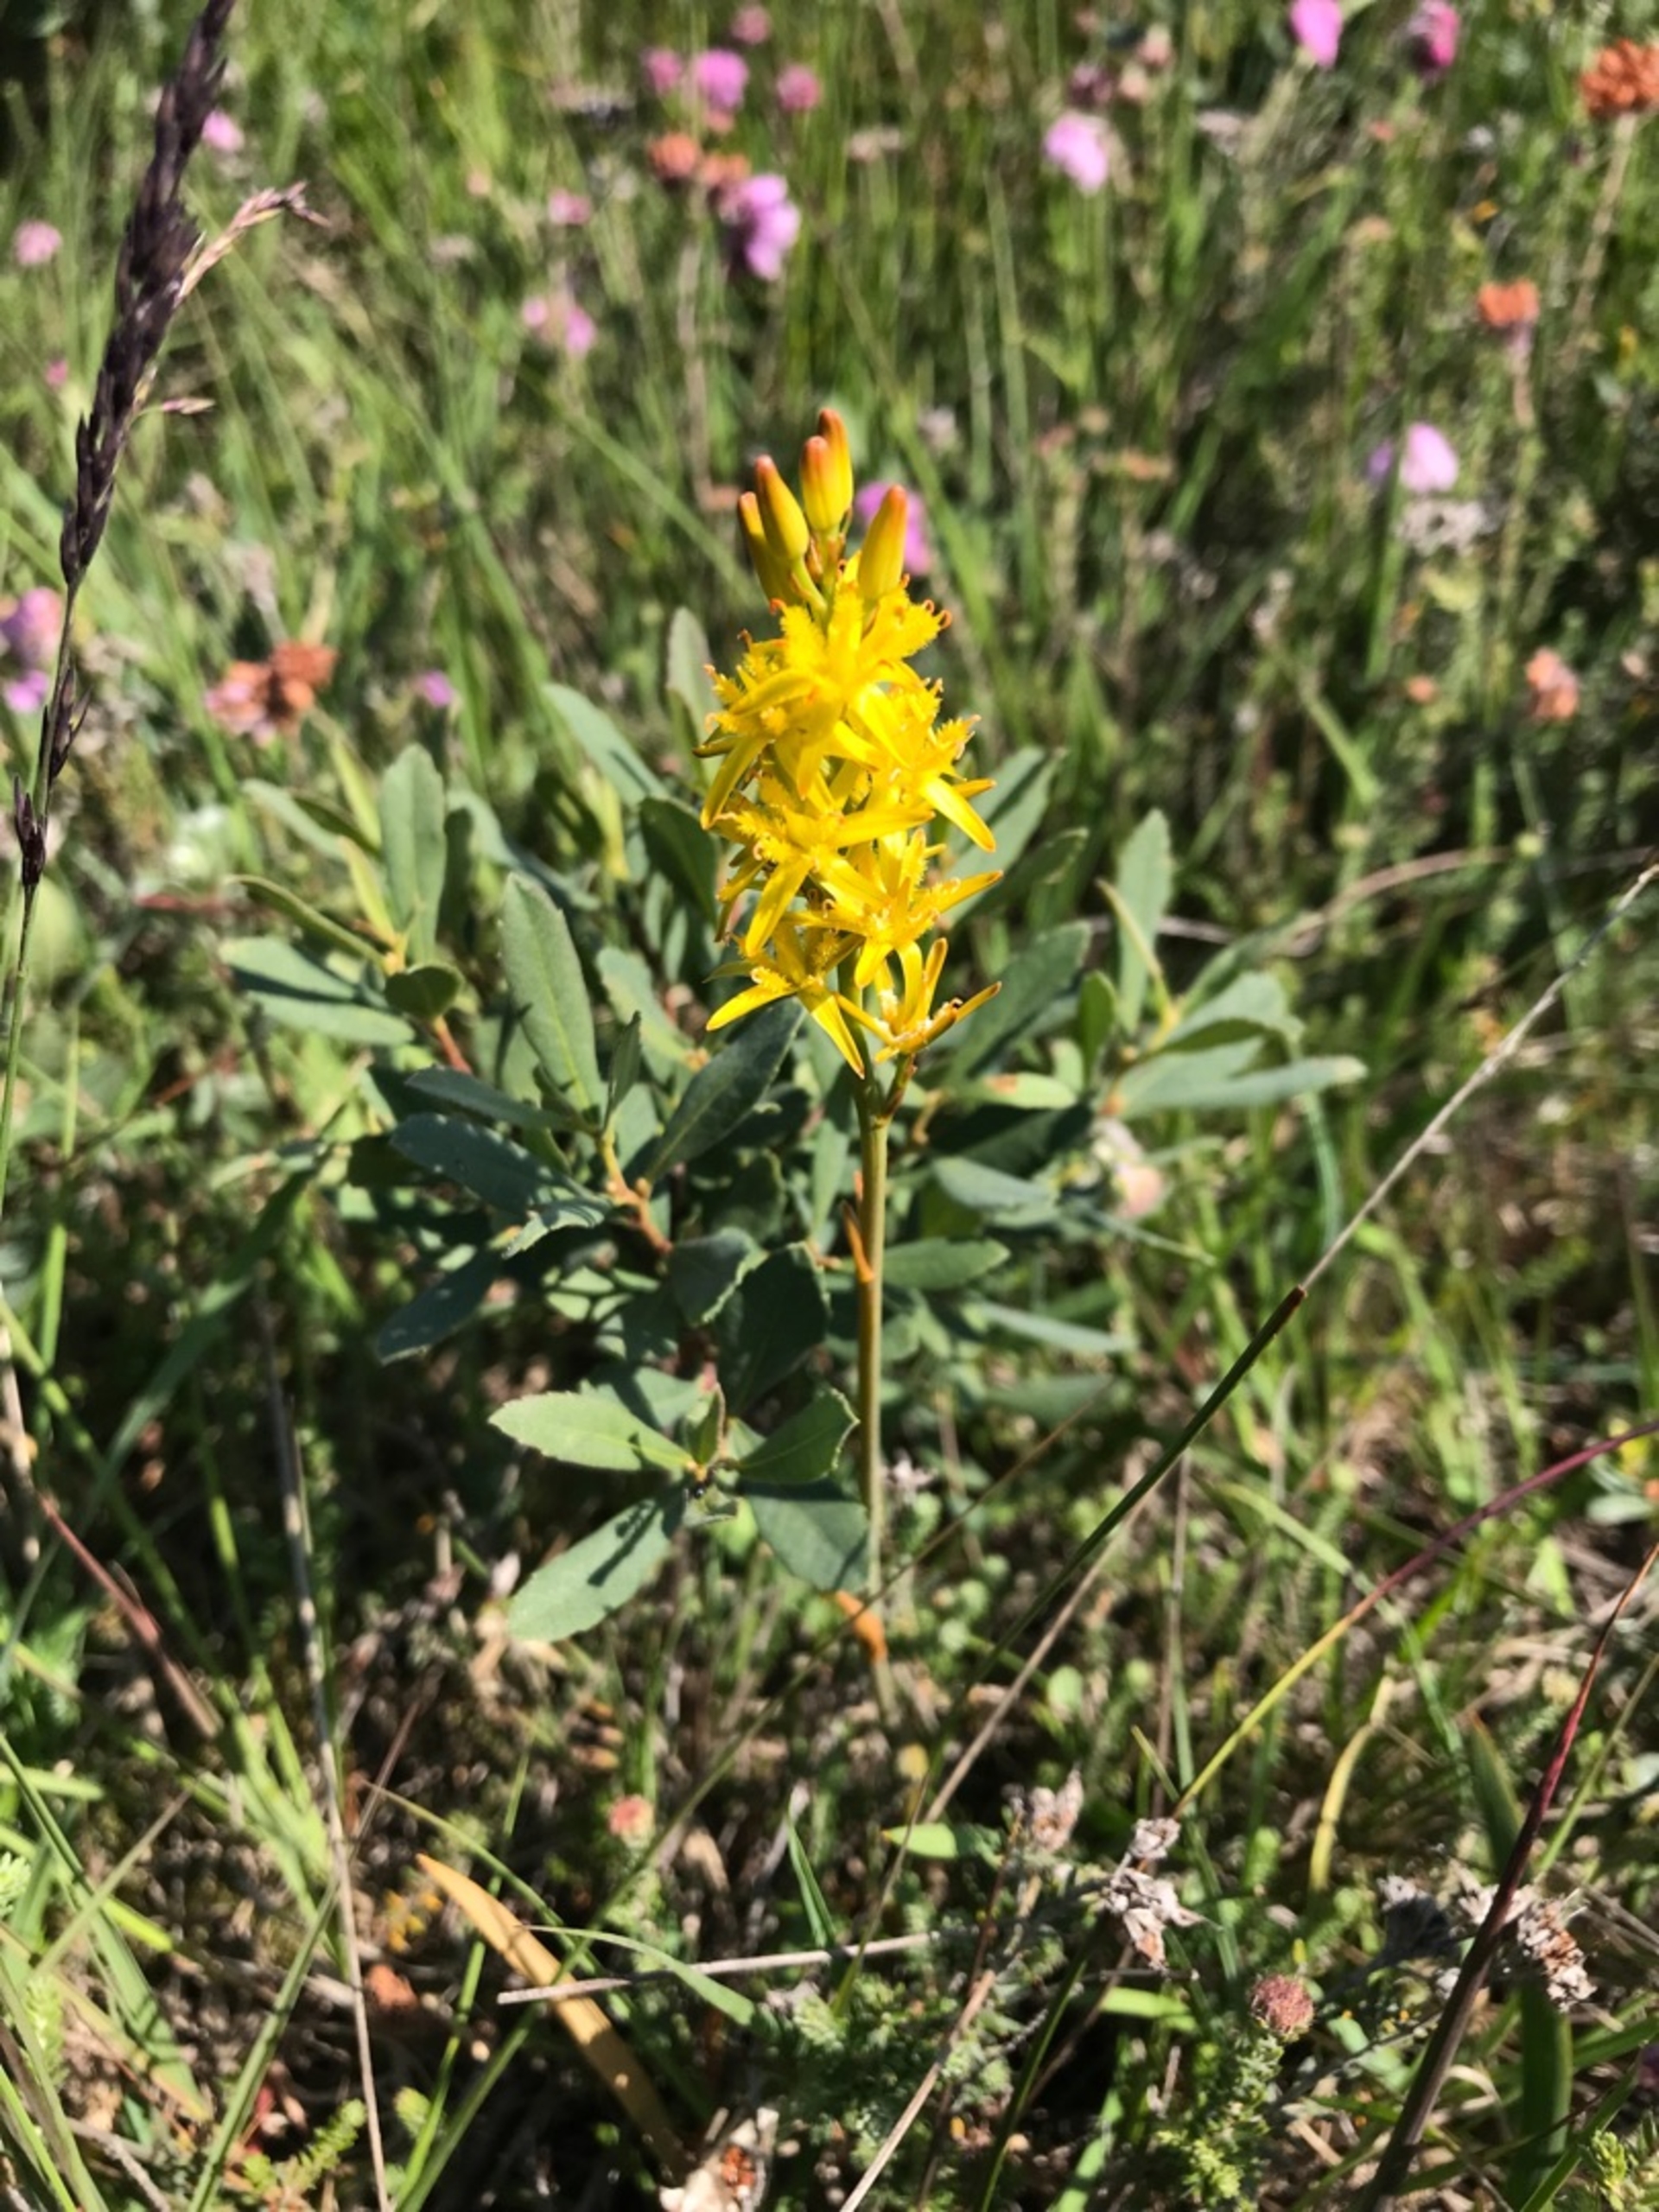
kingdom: Plantae
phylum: Tracheophyta
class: Liliopsida
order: Dioscoreales
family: Nartheciaceae
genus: Narthecium
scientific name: Narthecium ossifragum
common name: Benbræk
